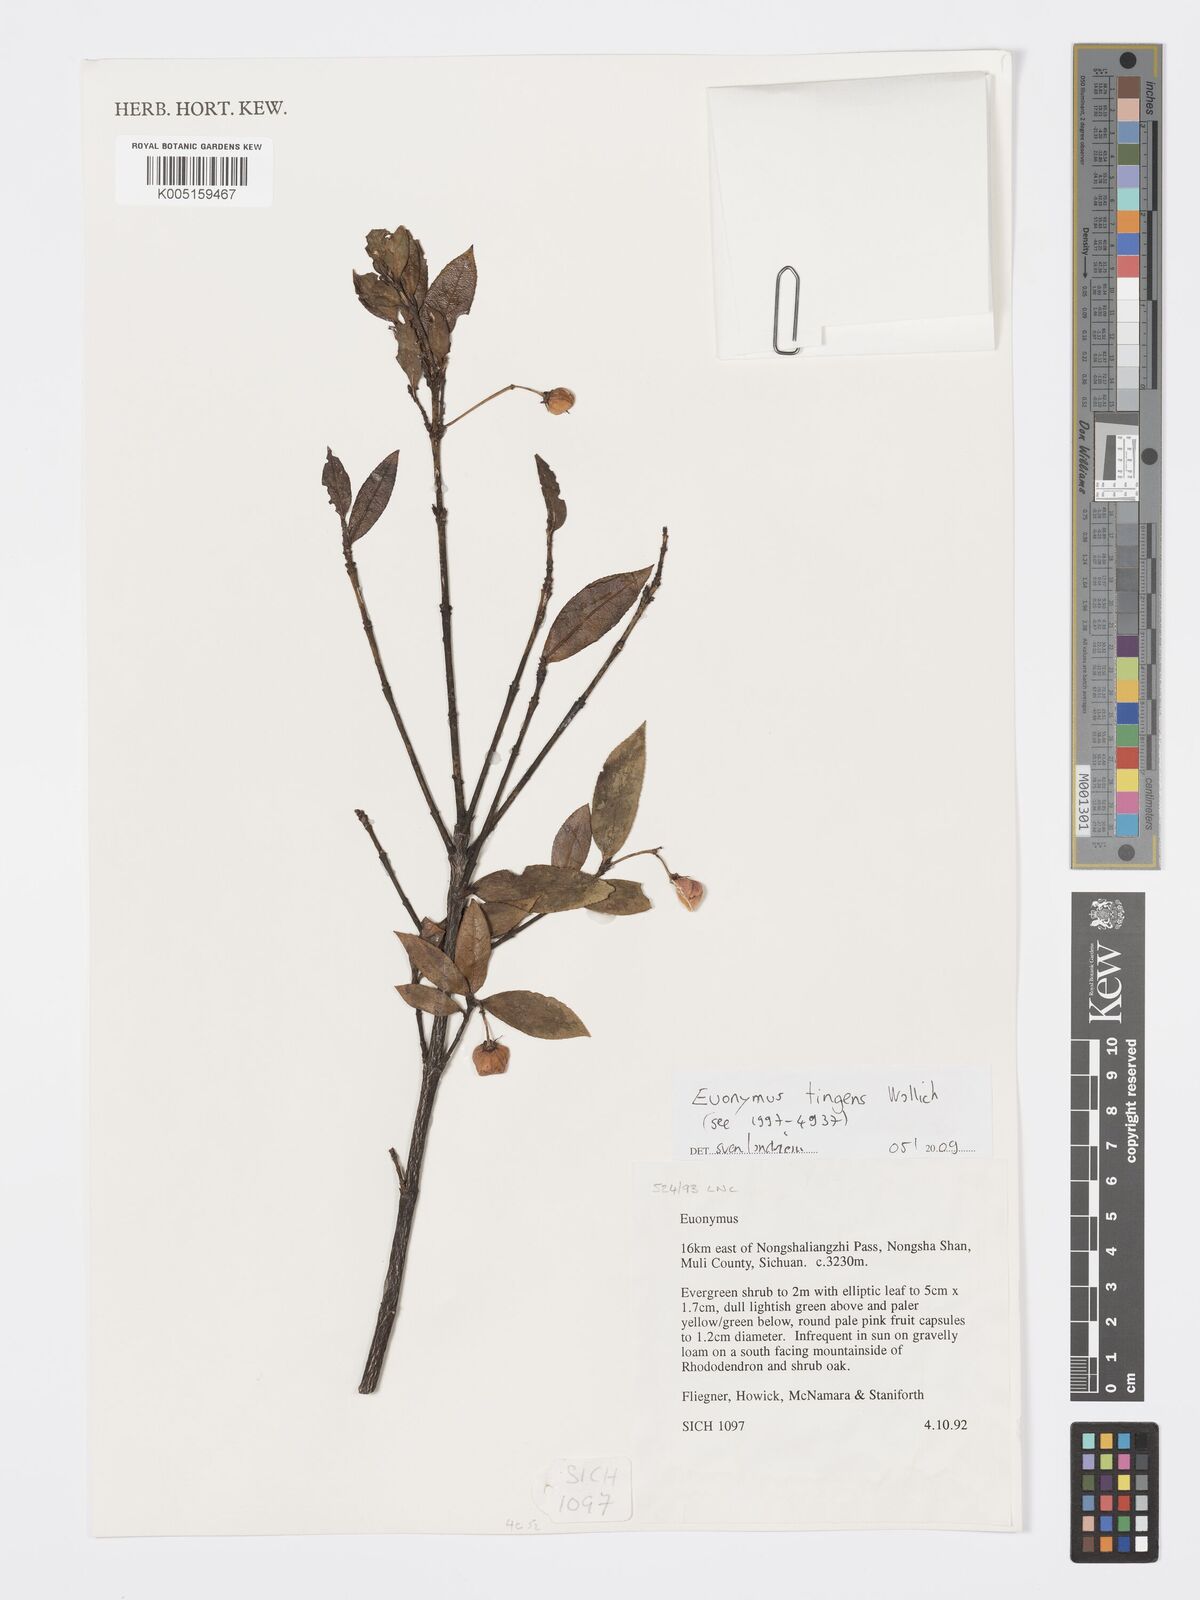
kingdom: Plantae
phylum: Tracheophyta
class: Magnoliopsida
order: Celastrales
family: Celastraceae
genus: Euonymus
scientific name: Euonymus tingens
